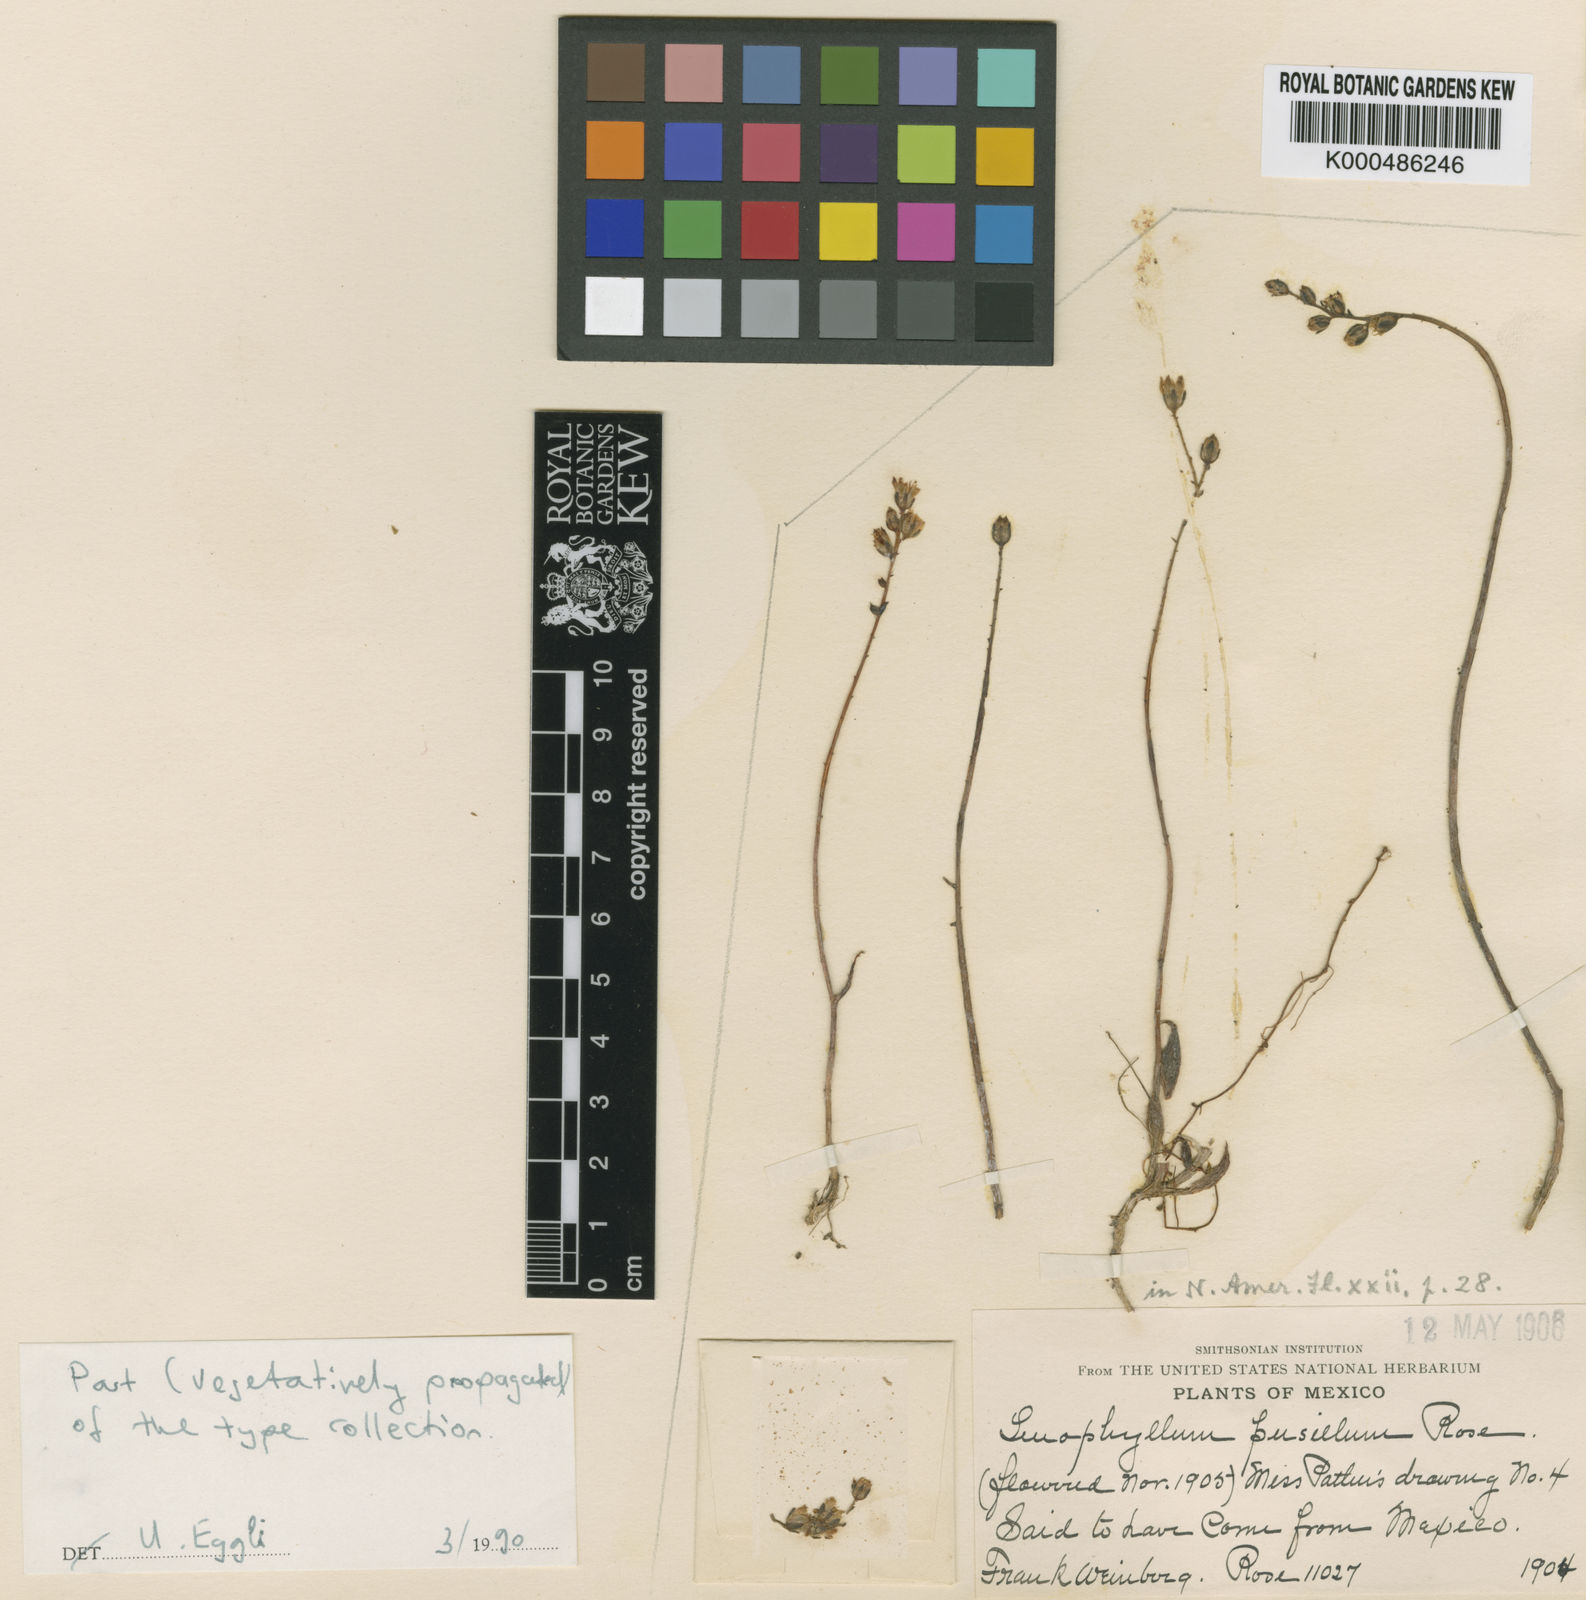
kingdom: Plantae
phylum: Tracheophyta
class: Magnoliopsida
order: Saxifragales
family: Crassulaceae
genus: Lenophyllum
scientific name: Lenophyllum texanum
